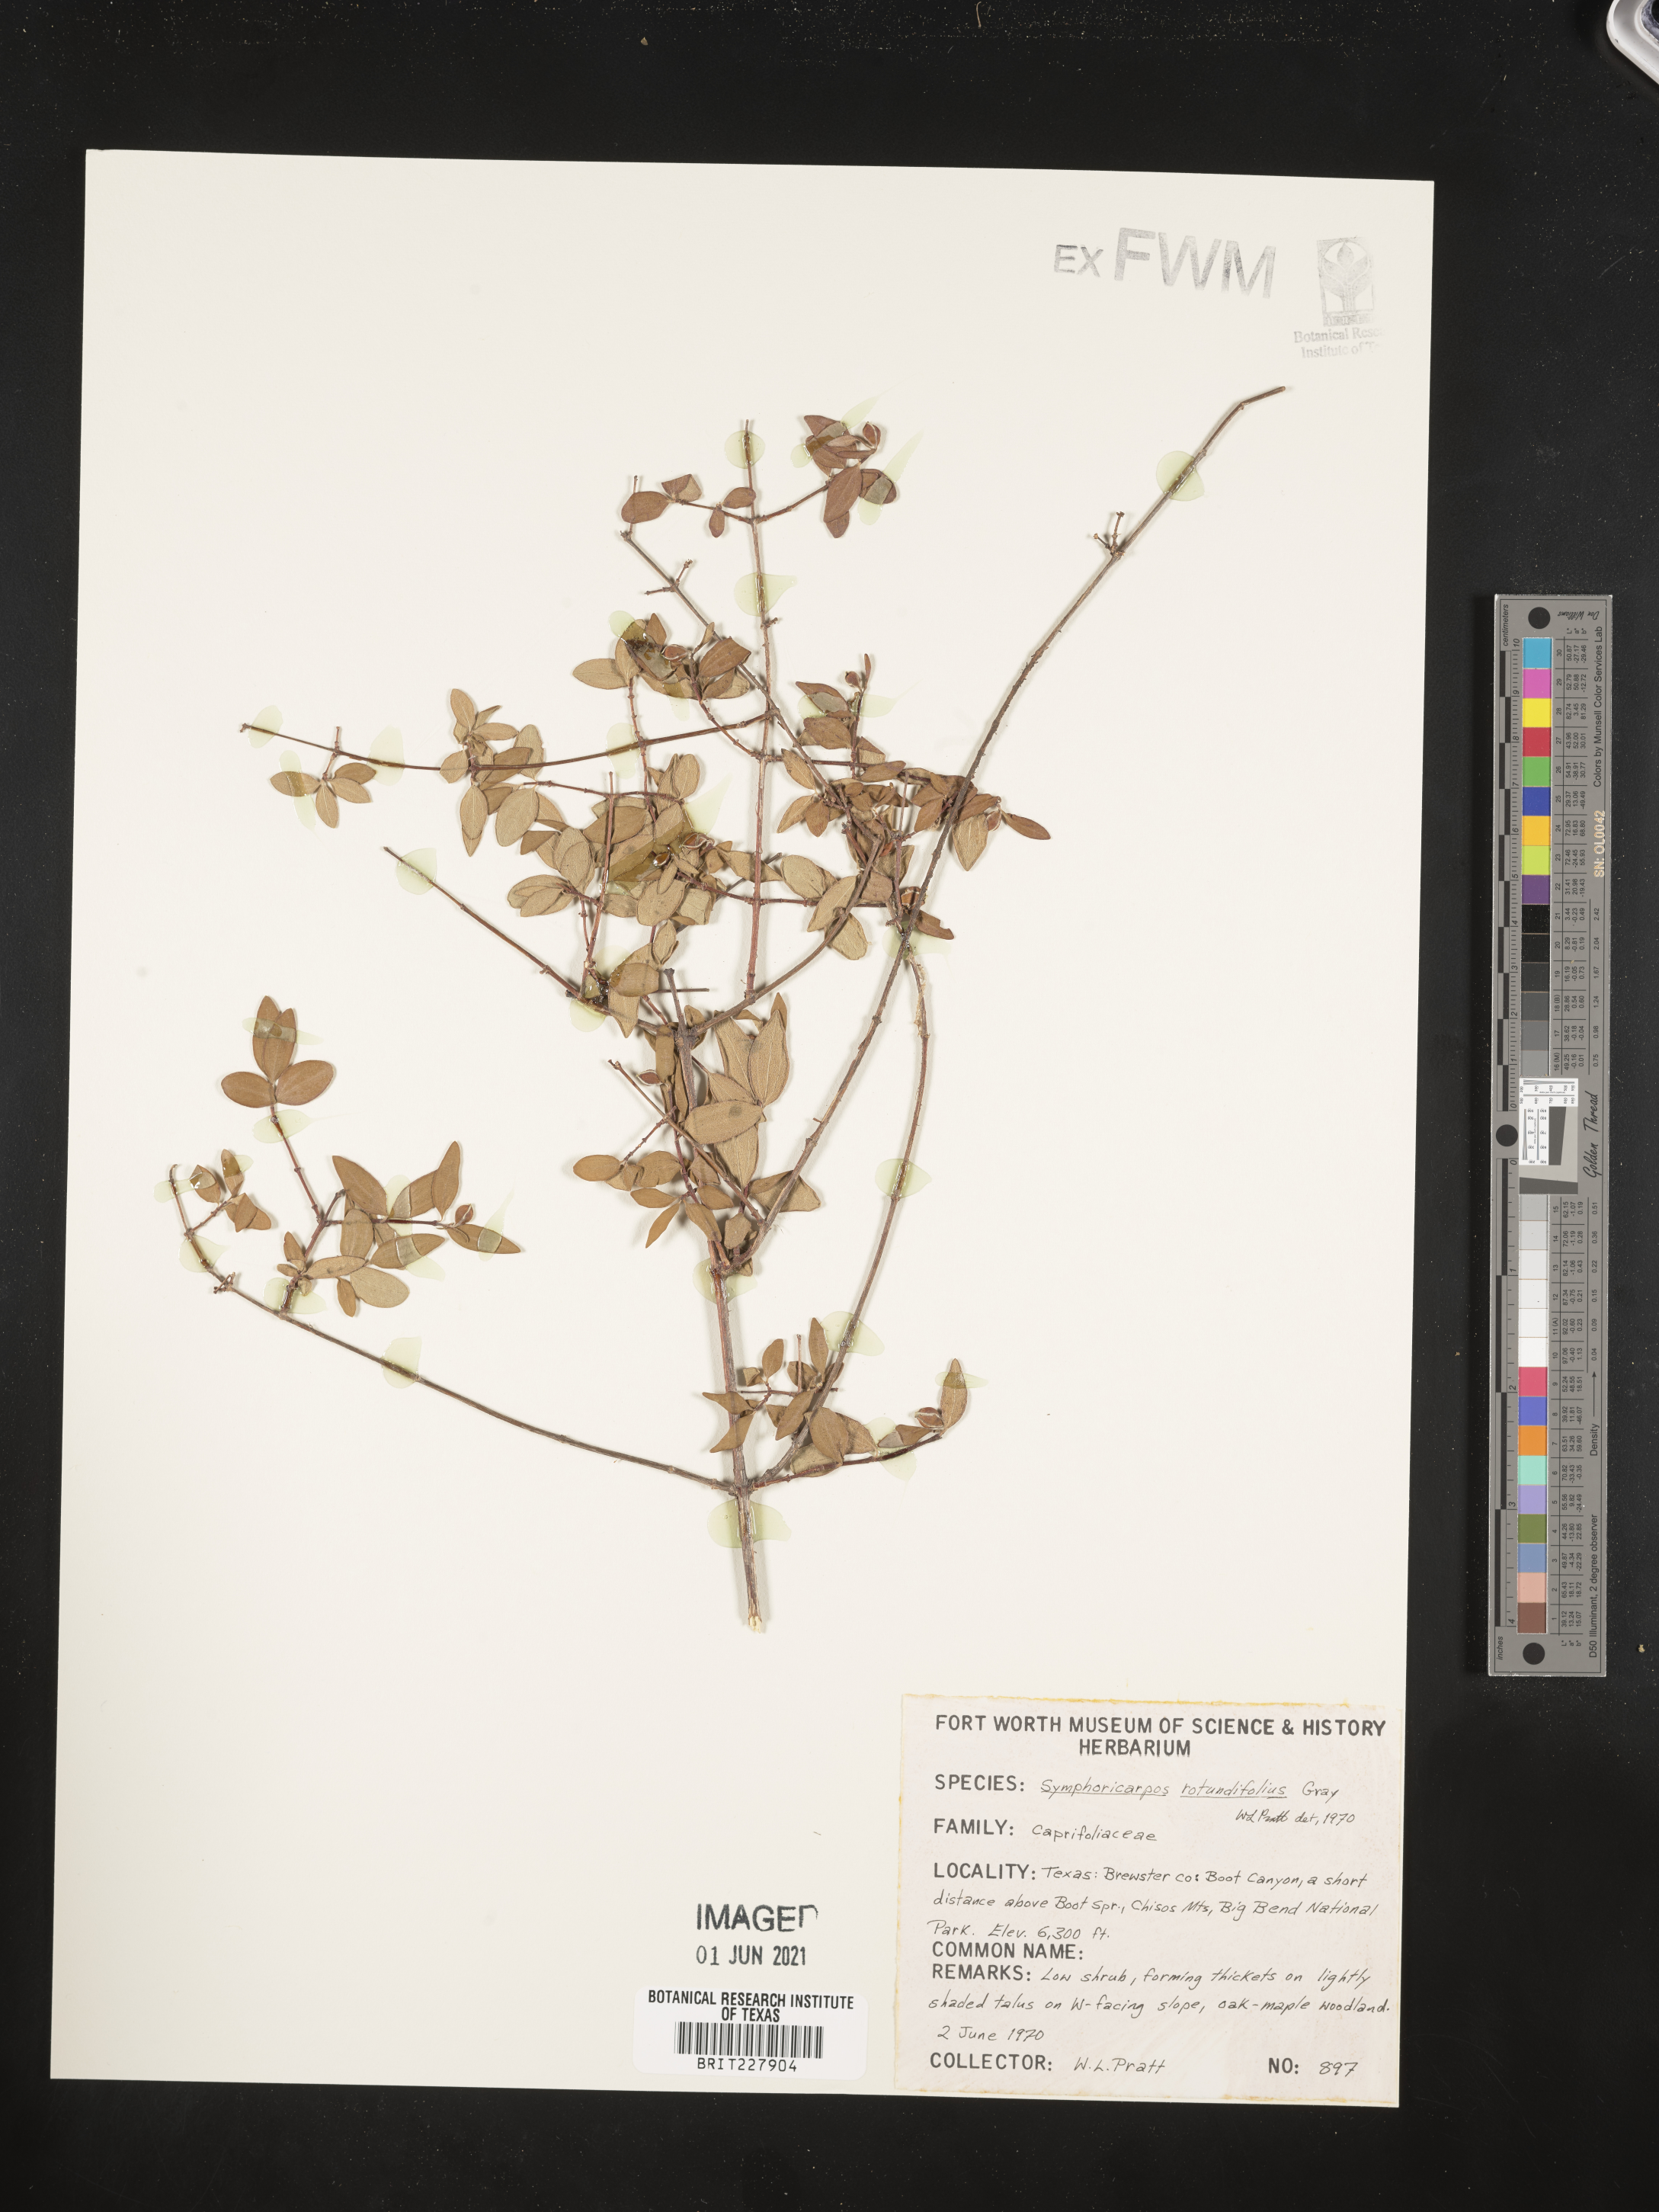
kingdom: Plantae
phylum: Tracheophyta
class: Magnoliopsida
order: Dipsacales
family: Caprifoliaceae
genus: Symphoricarpos
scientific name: Symphoricarpos rotundifolius
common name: Round-leaved snowberry
